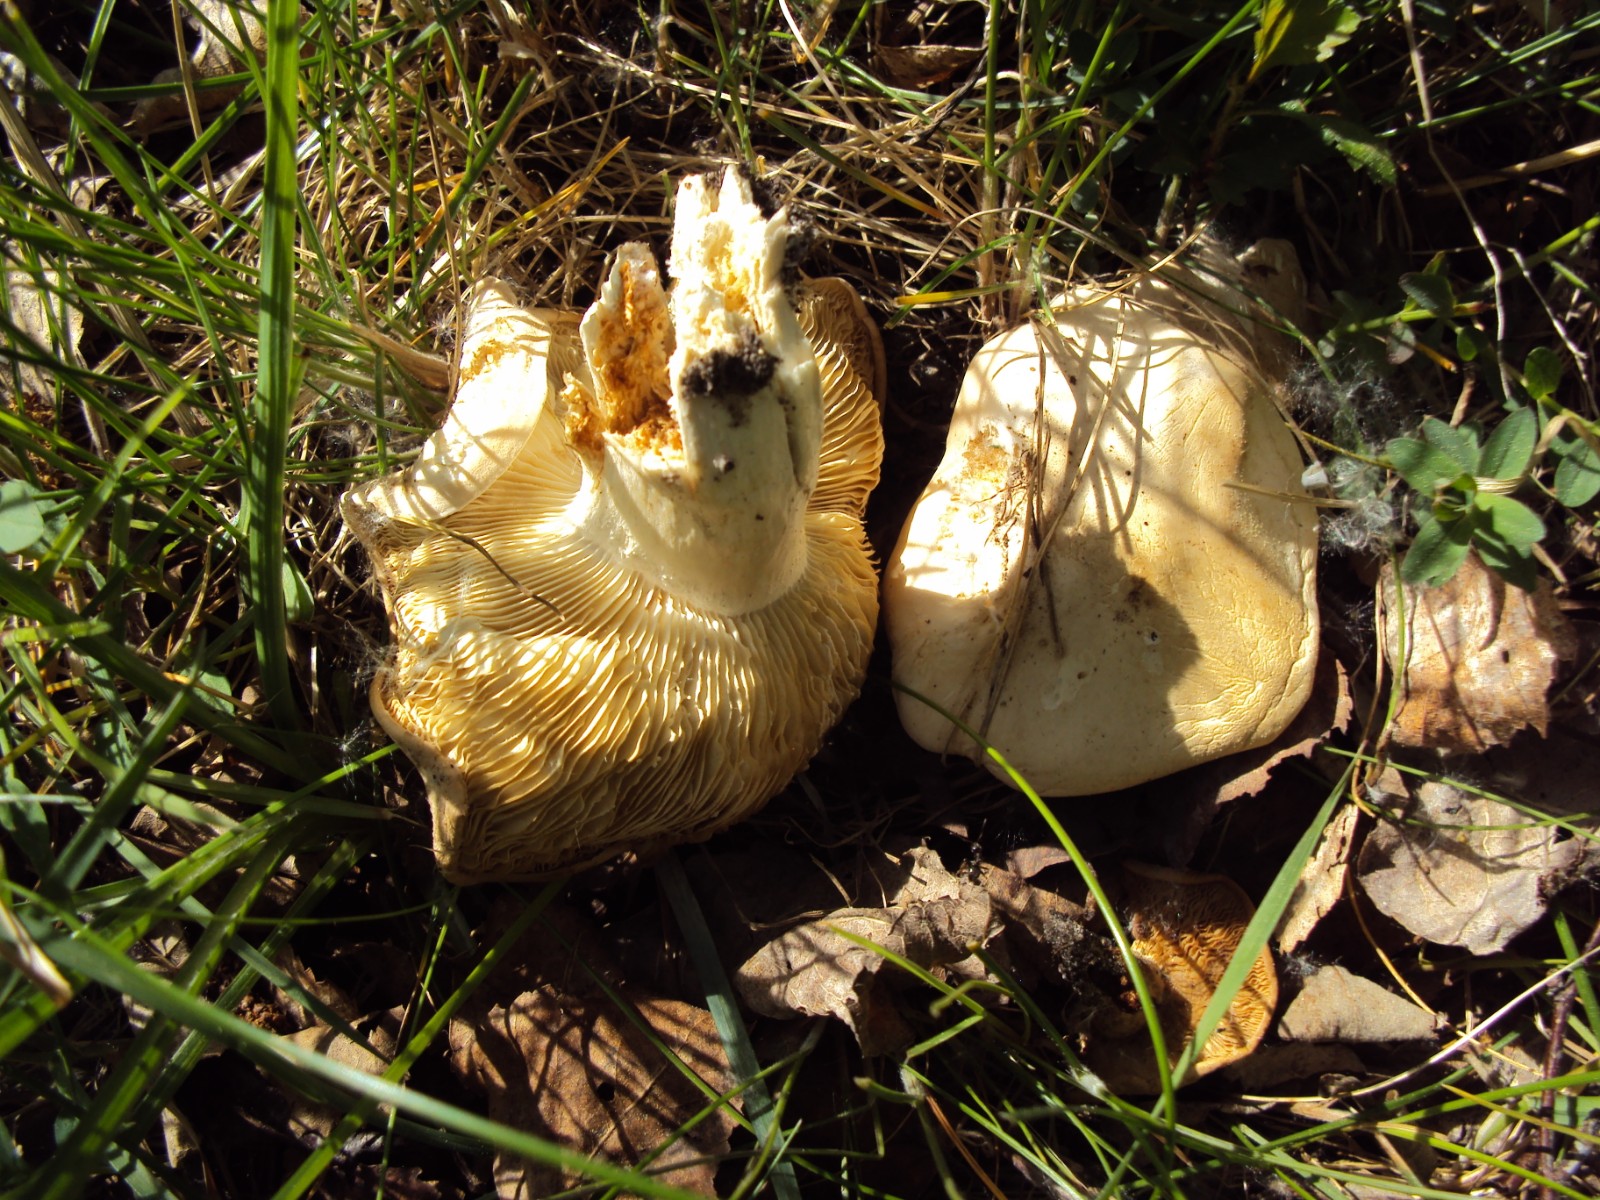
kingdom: Fungi
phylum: Basidiomycota
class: Agaricomycetes
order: Agaricales
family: Lyophyllaceae
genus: Calocybe
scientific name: Calocybe gambosa
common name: vårmusseron
